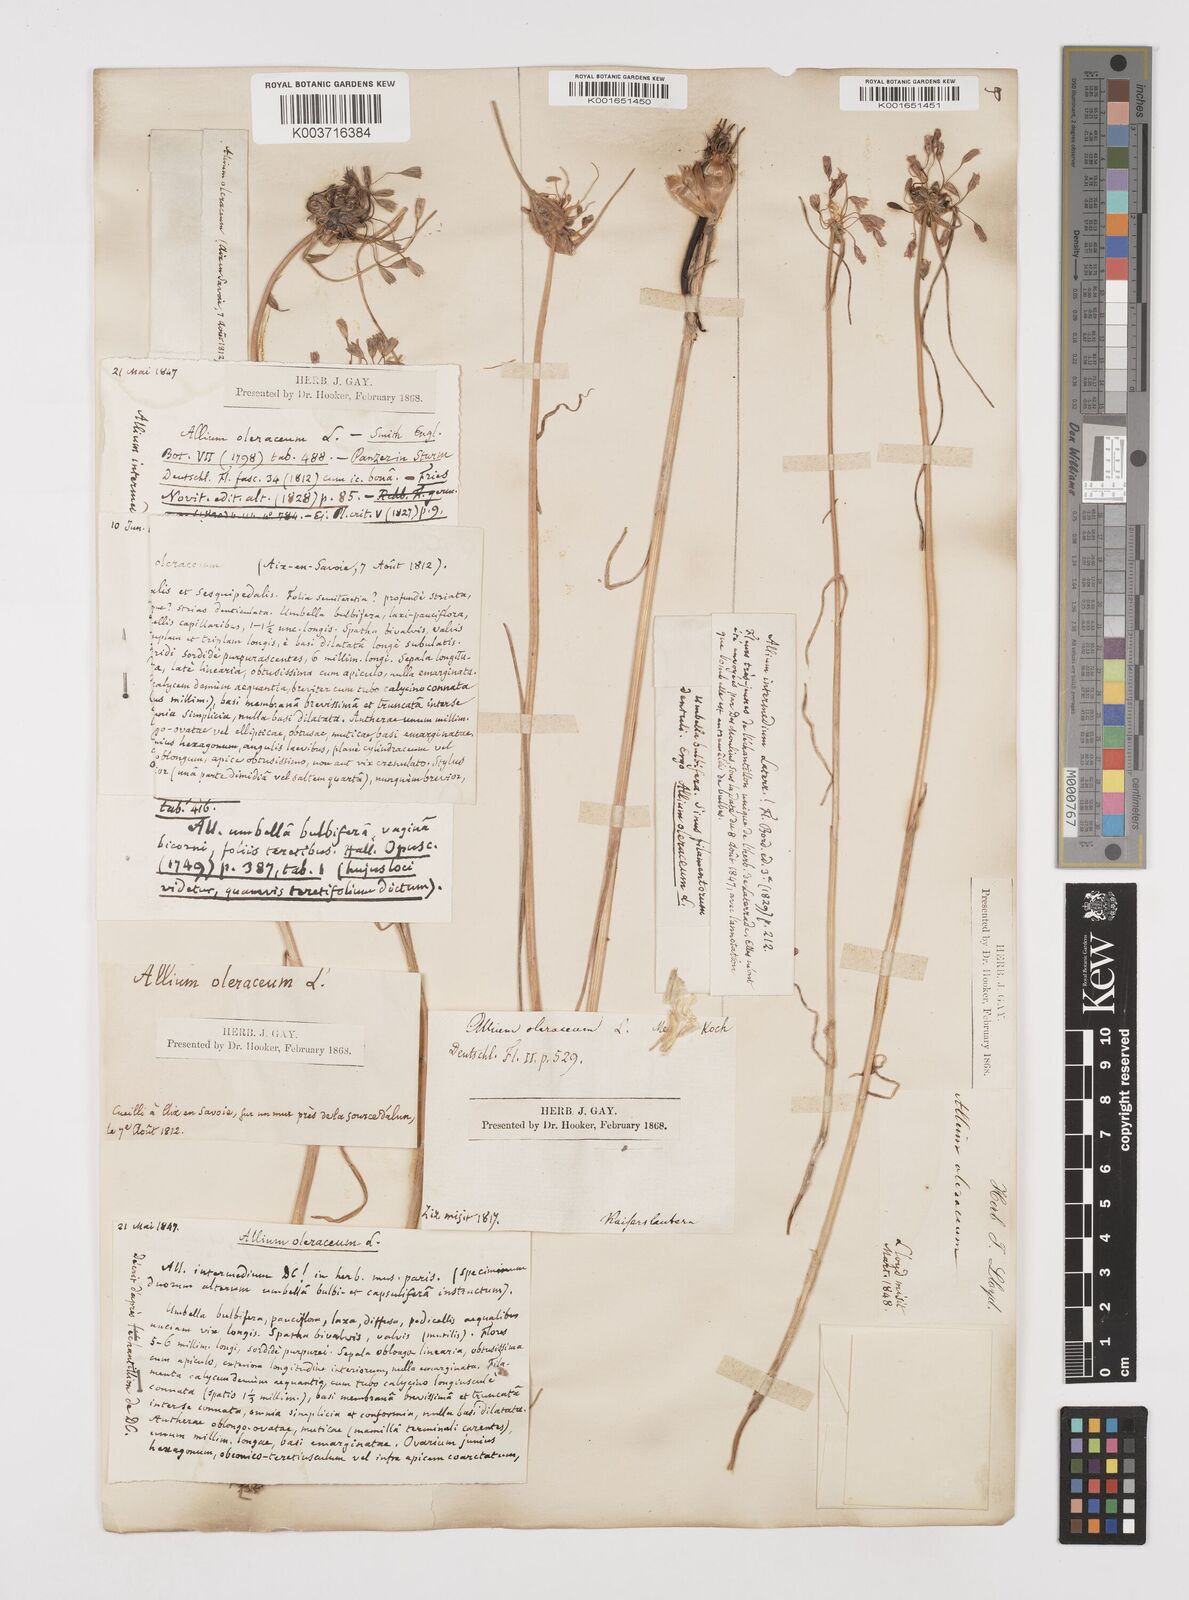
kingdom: Plantae
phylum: Tracheophyta
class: Liliopsida
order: Asparagales
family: Amaryllidaceae
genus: Allium
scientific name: Allium oleraceum
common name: Field garlic
